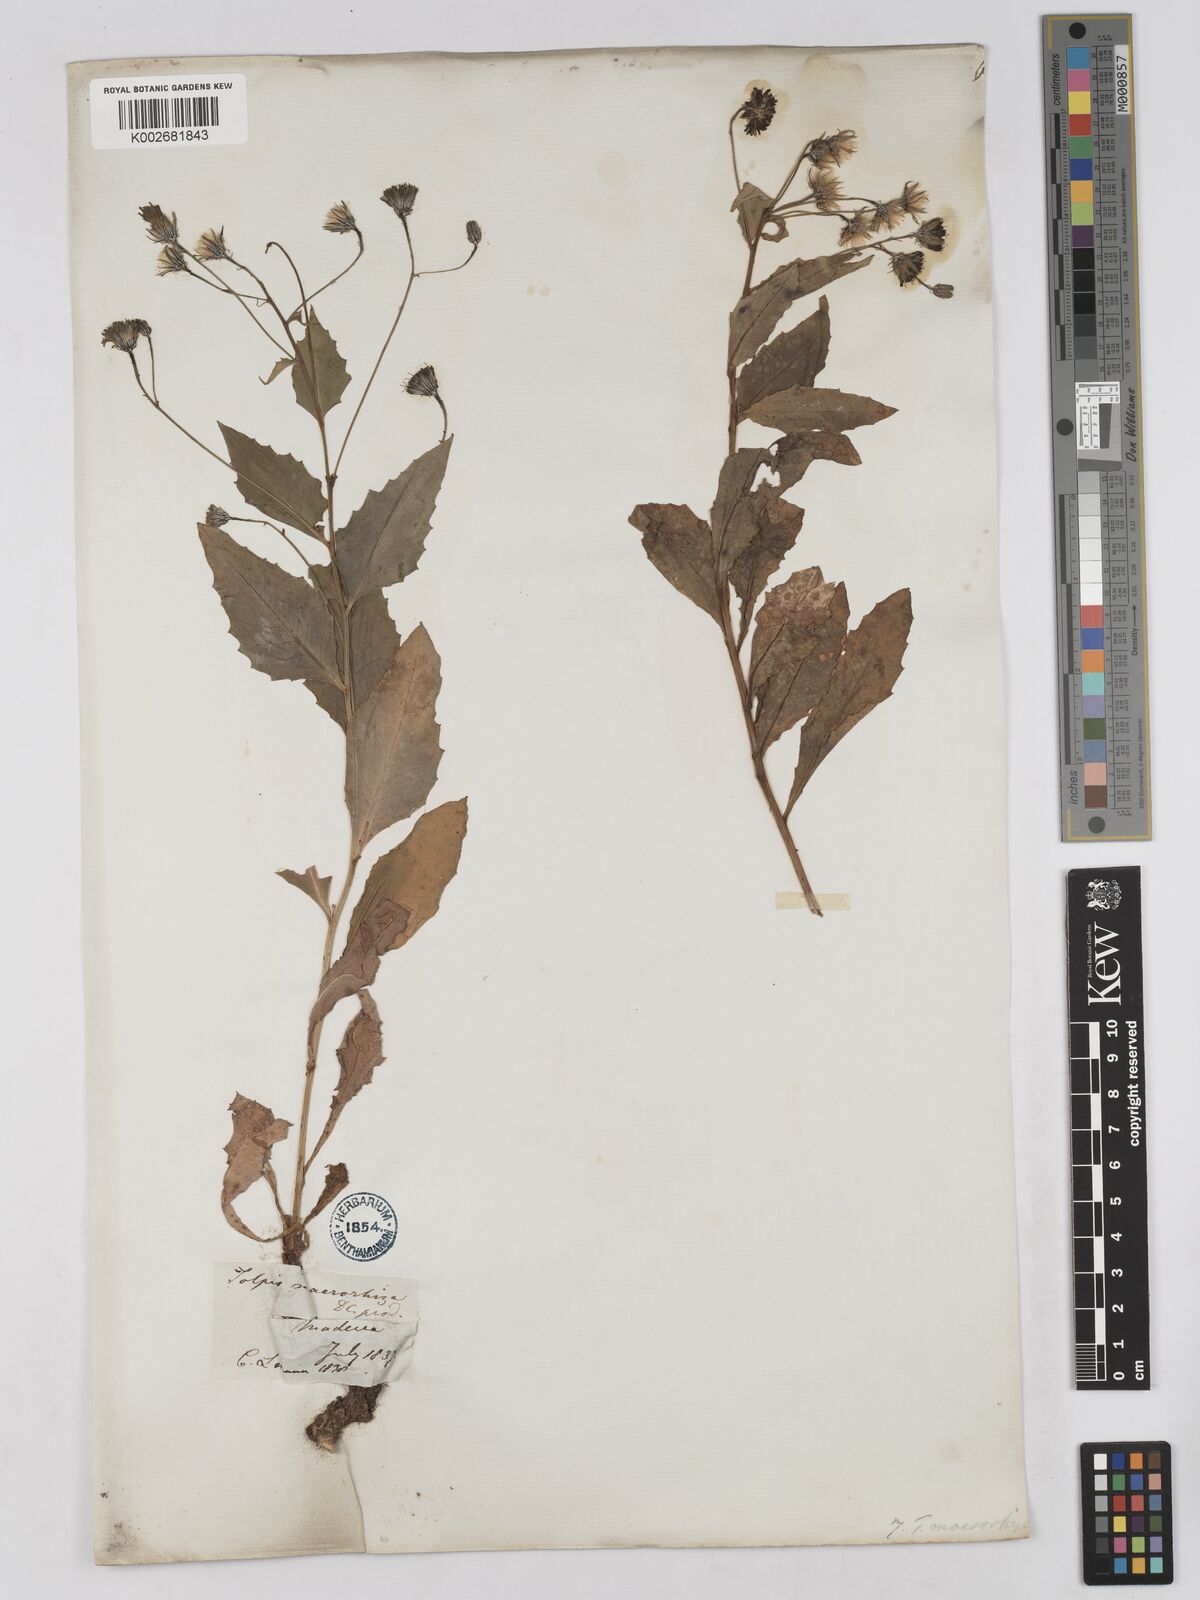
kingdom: Plantae
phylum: Tracheophyta
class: Magnoliopsida
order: Asterales
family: Asteraceae
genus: Tolpis
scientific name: Tolpis macrorhiza
